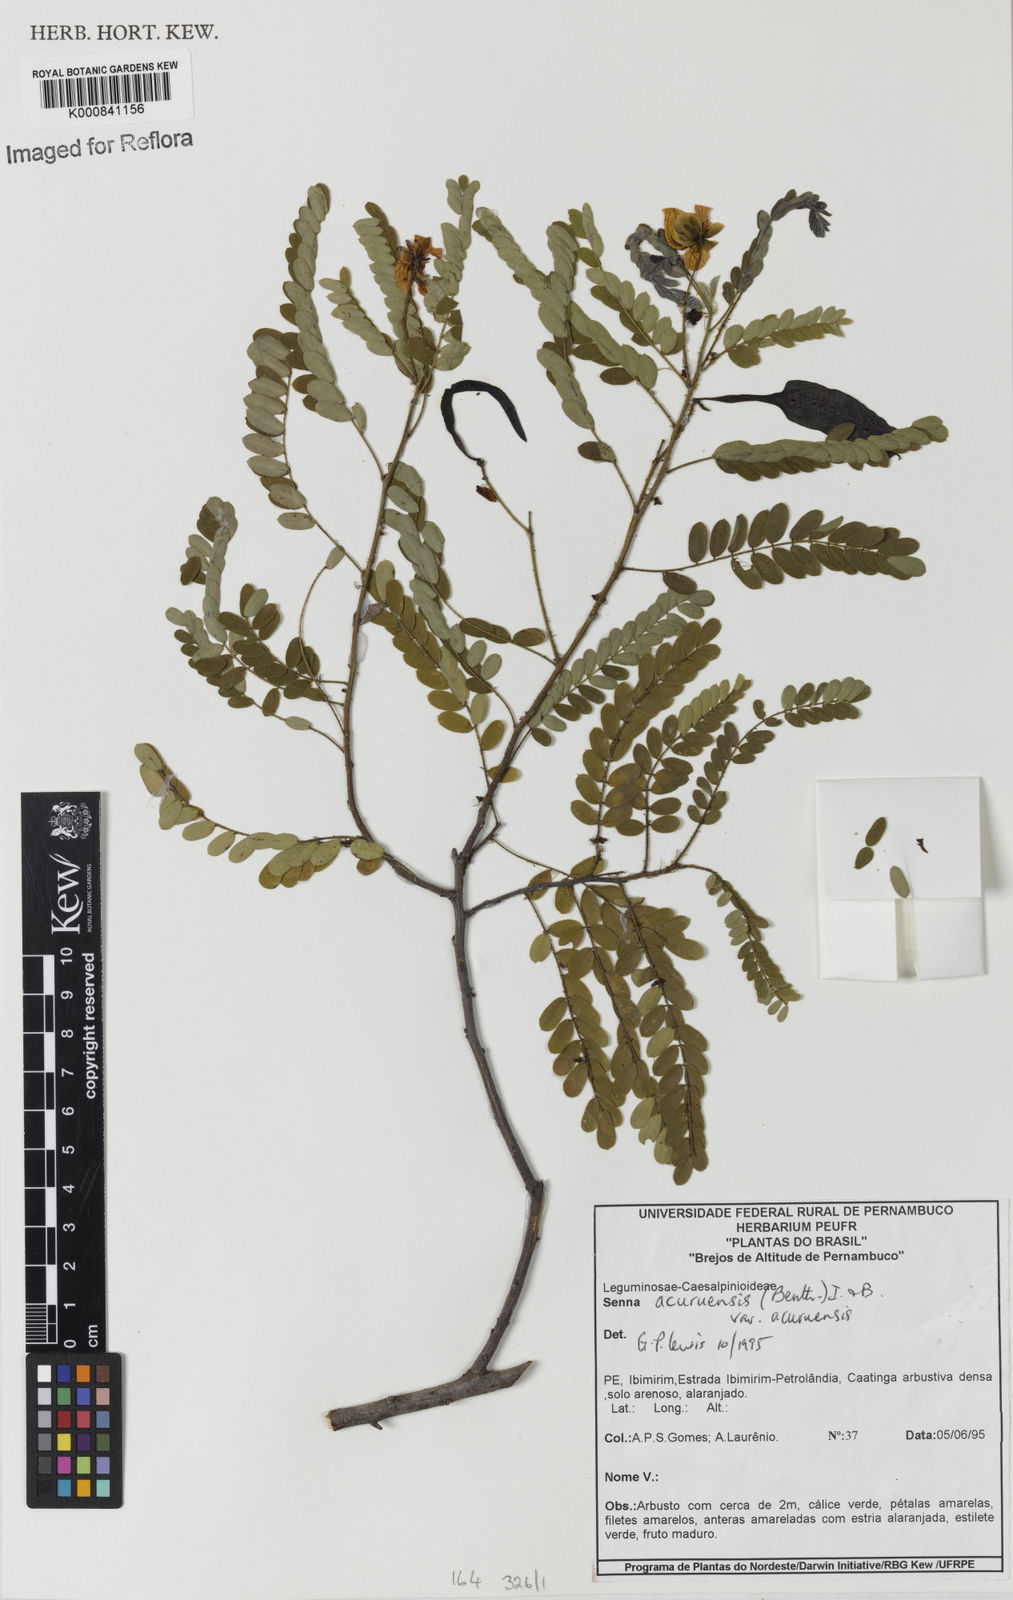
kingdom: Plantae
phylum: Tracheophyta
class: Magnoliopsida
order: Fabales
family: Fabaceae
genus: Senna
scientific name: Senna acuruensis
